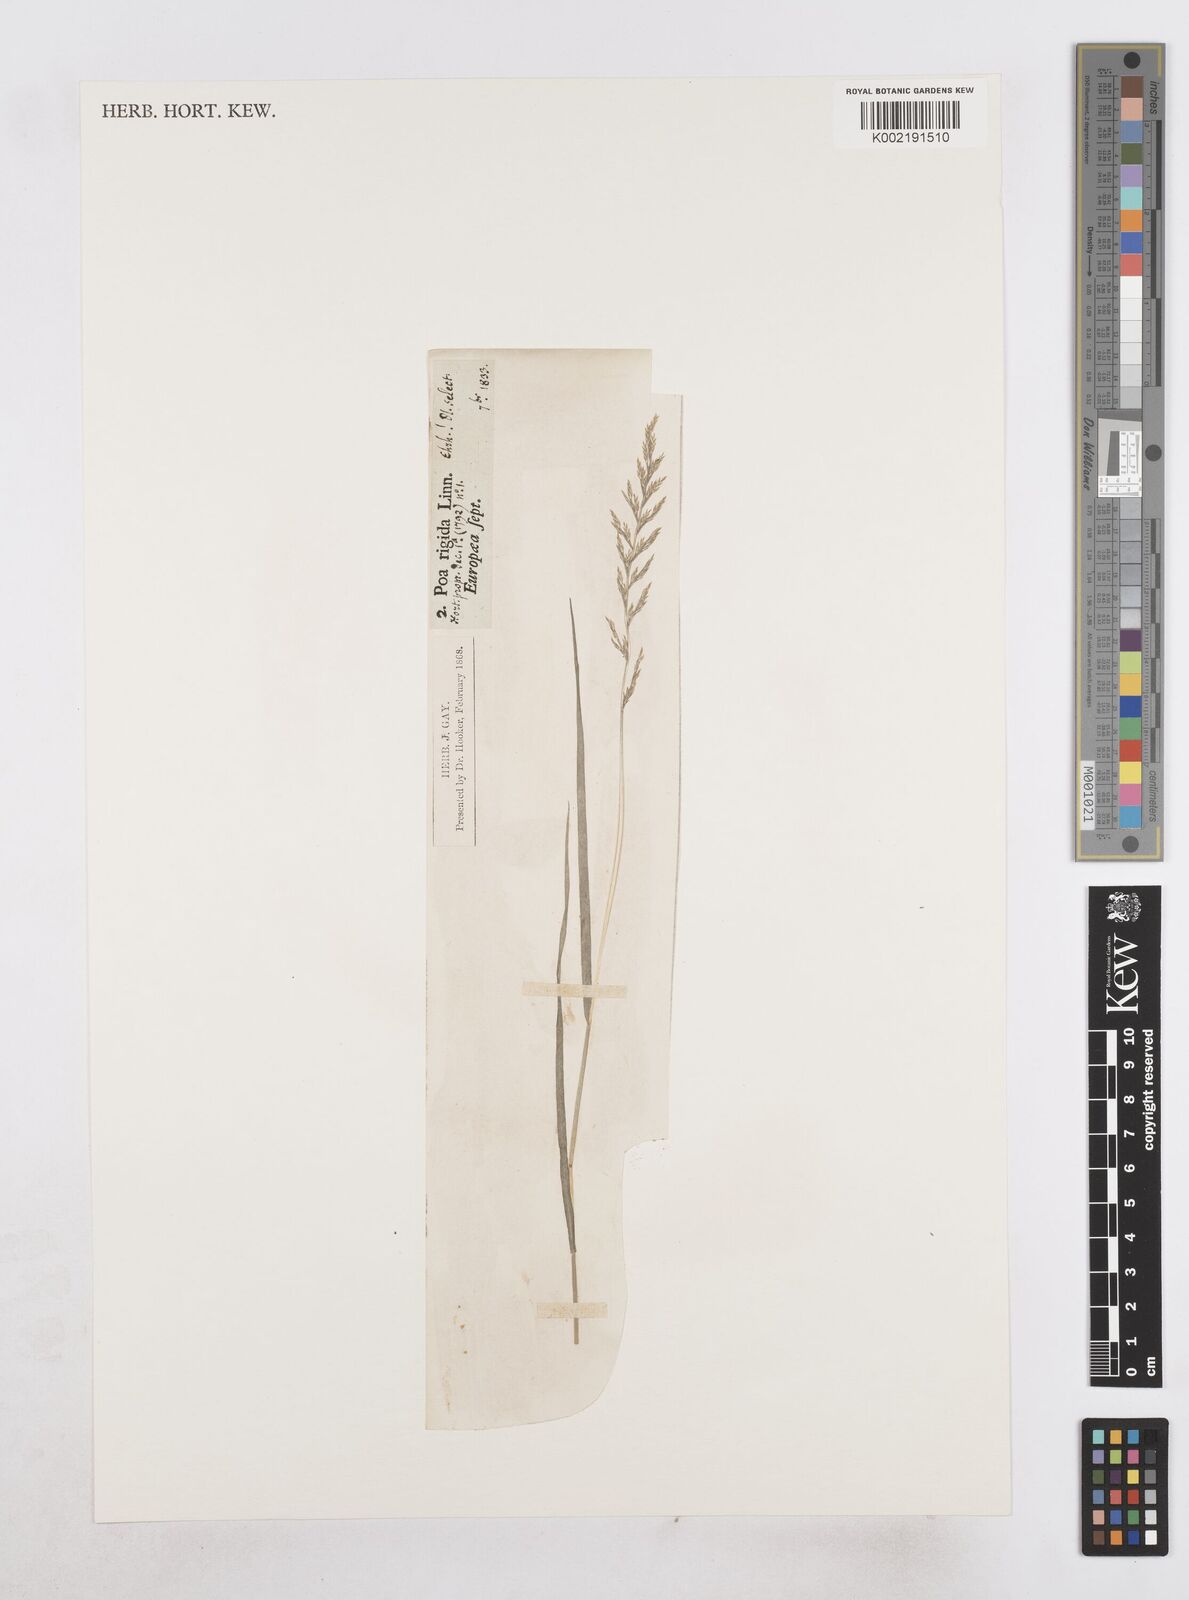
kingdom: Plantae
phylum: Tracheophyta
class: Liliopsida
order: Poales
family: Poaceae
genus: Catapodium
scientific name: Catapodium rigidum
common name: Fern-grass
